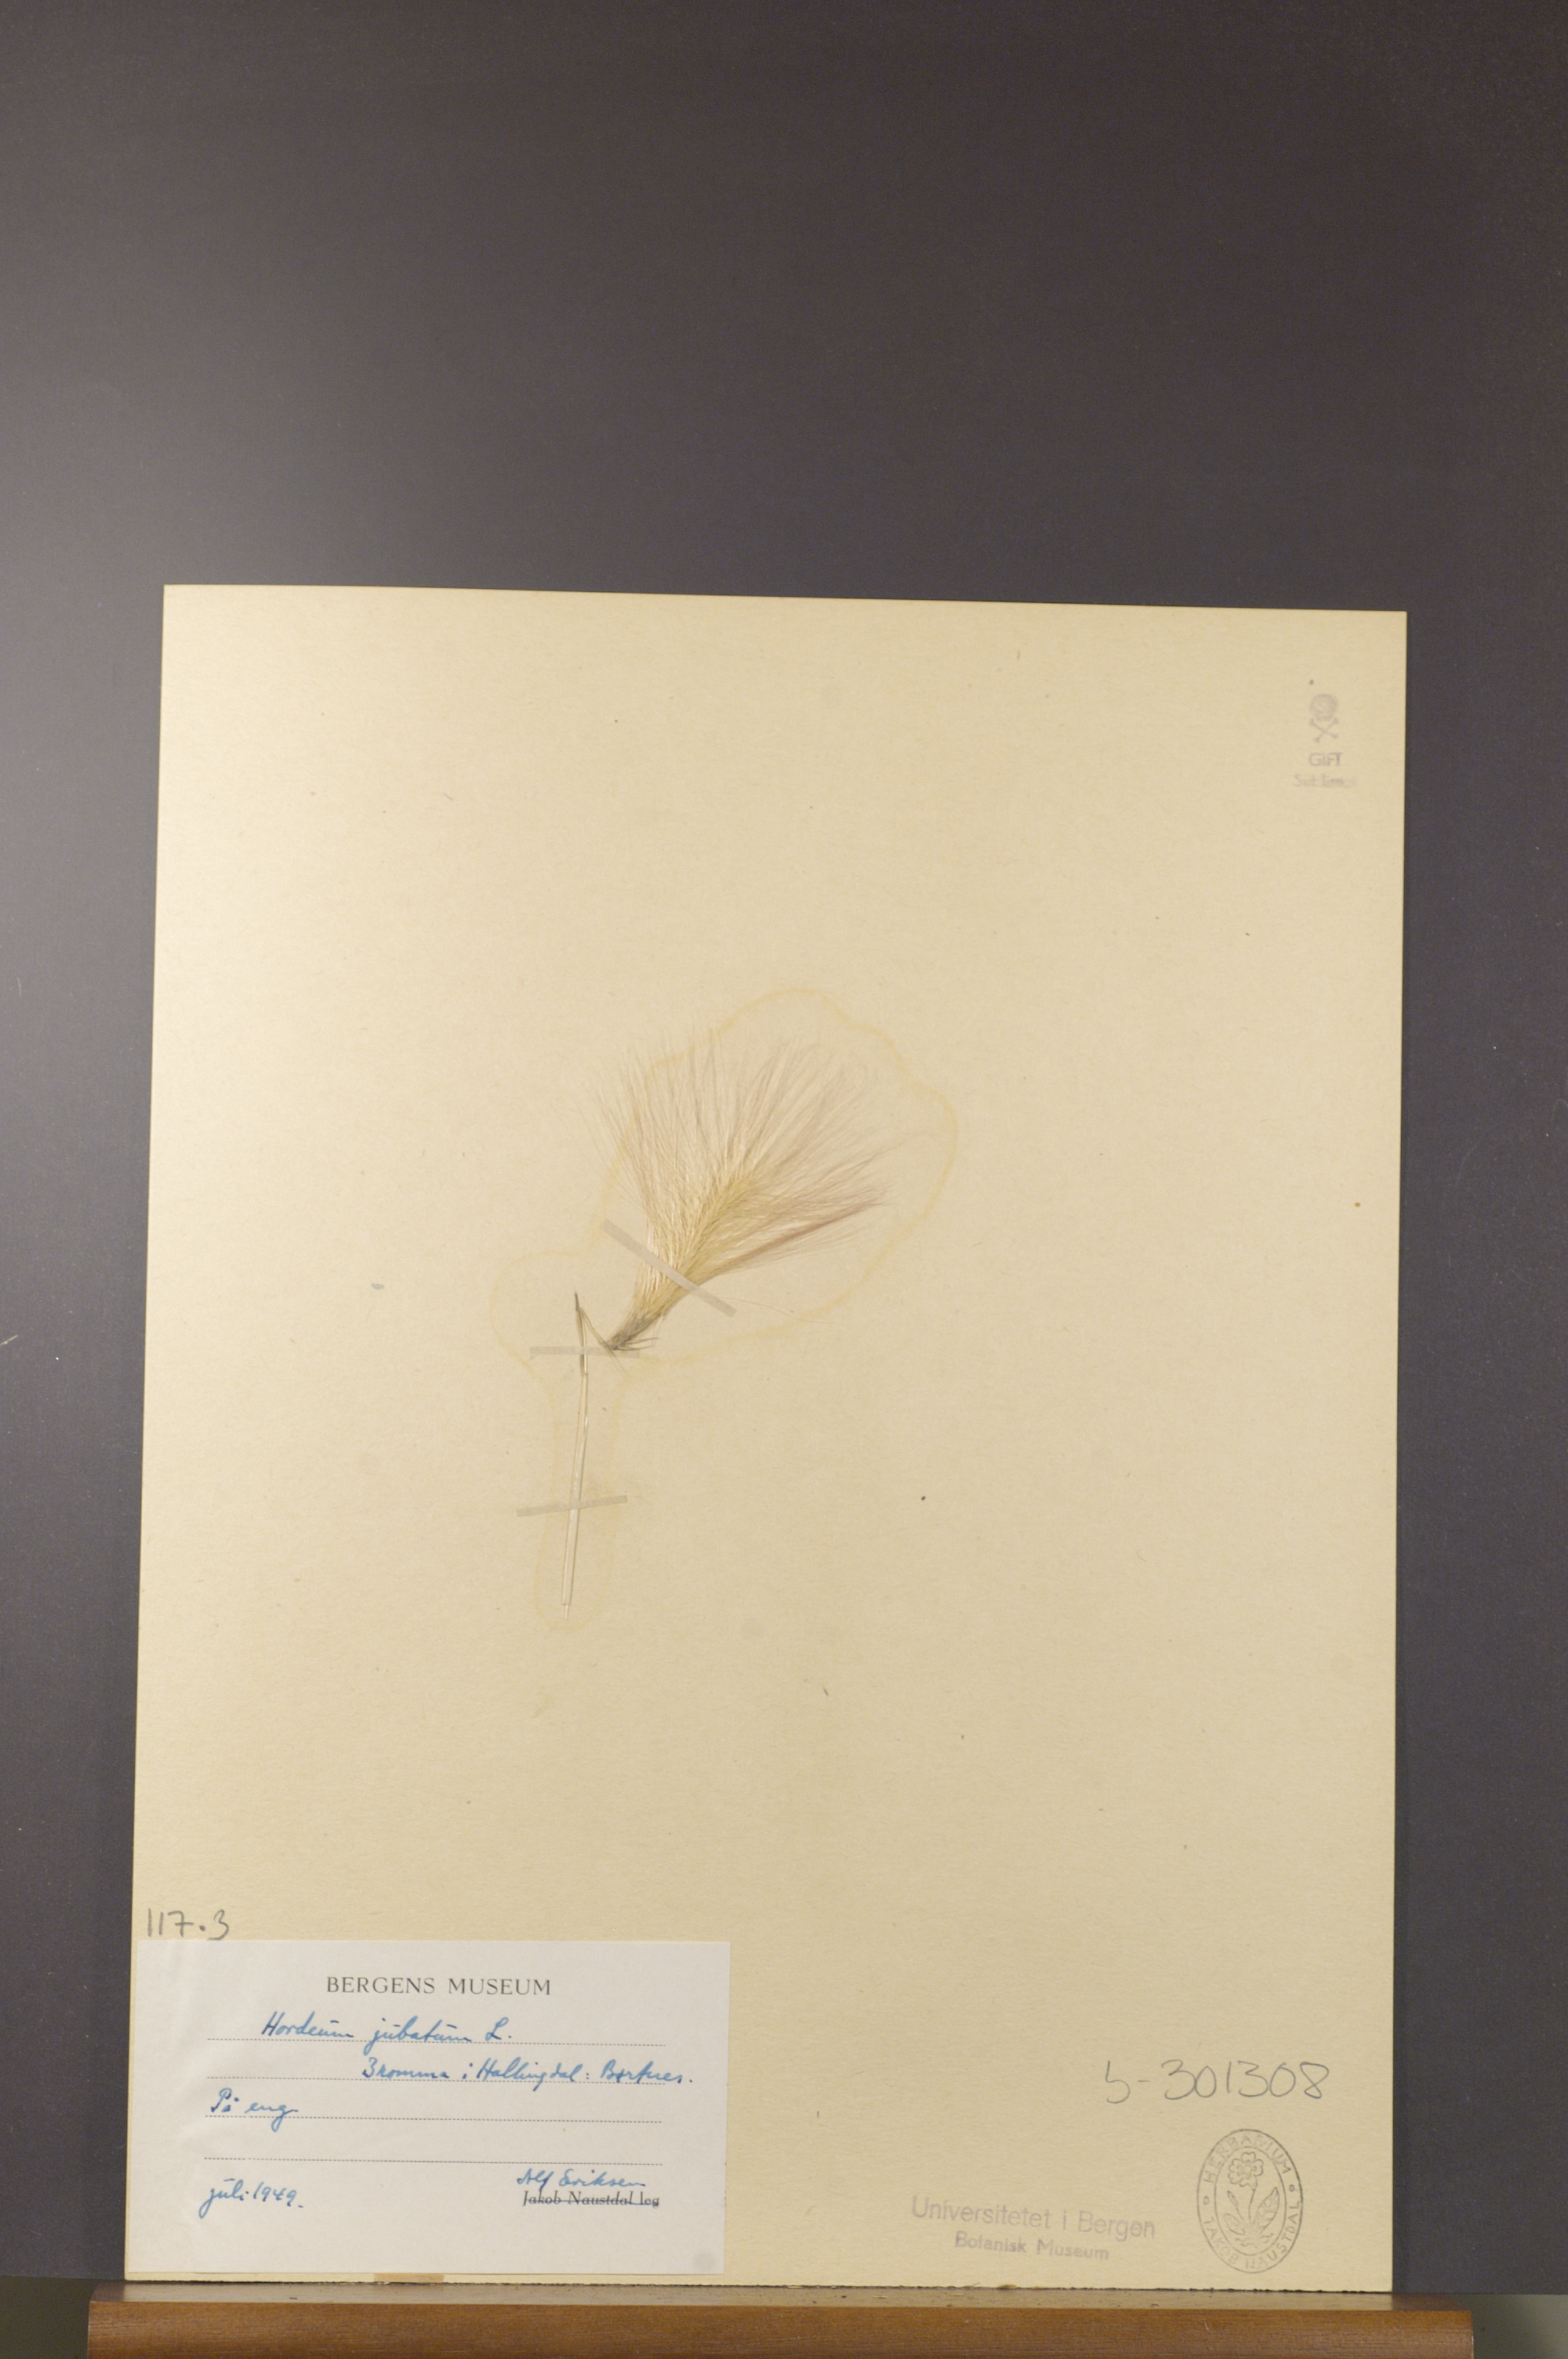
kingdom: Plantae
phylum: Tracheophyta
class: Liliopsida
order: Poales
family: Poaceae
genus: Hordeum
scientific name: Hordeum jubatum
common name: Foxtail barley
